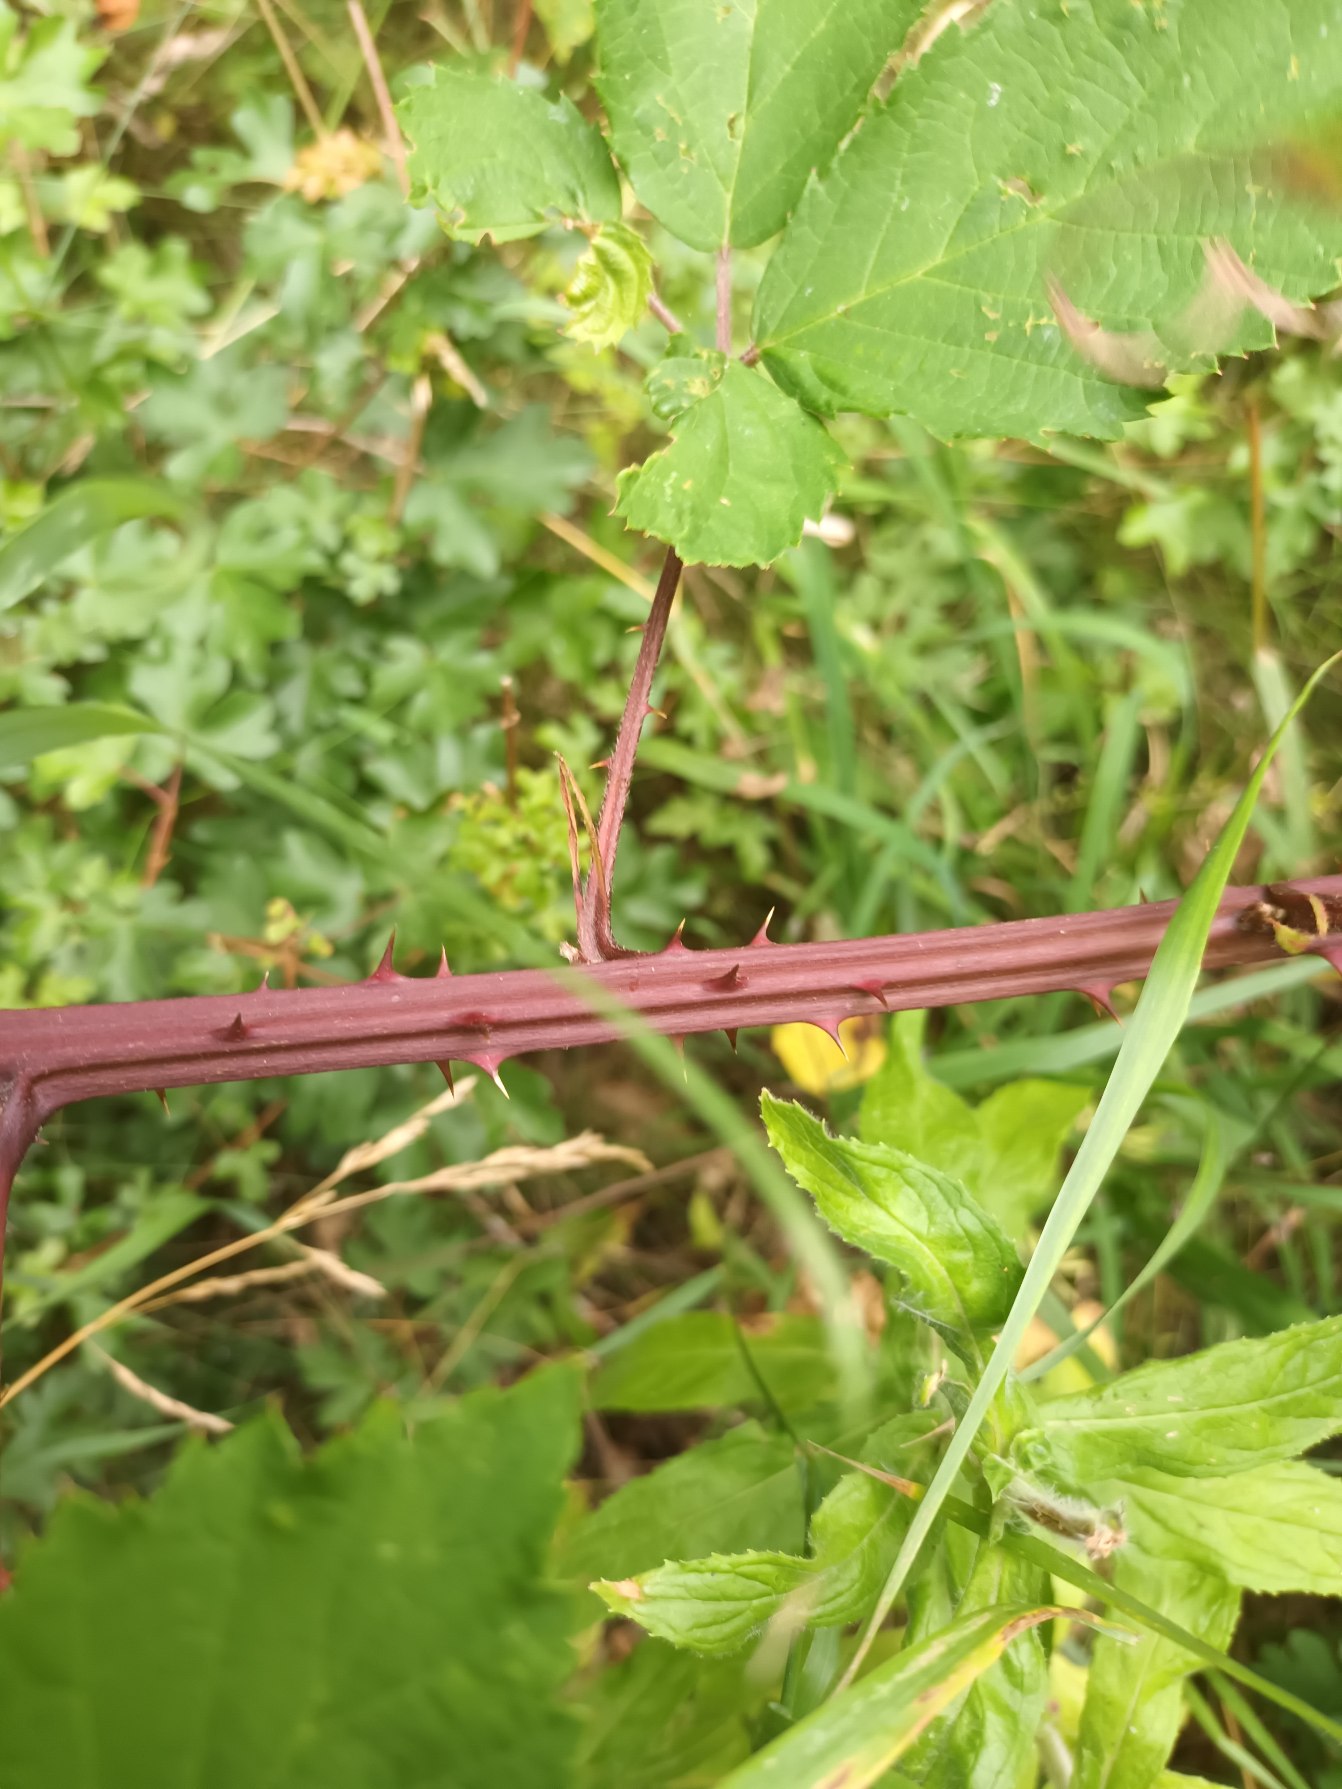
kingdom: Plantae
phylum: Tracheophyta
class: Magnoliopsida
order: Rosales
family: Rosaceae
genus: Rubus
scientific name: Rubus gratus
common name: Smuk brombær
